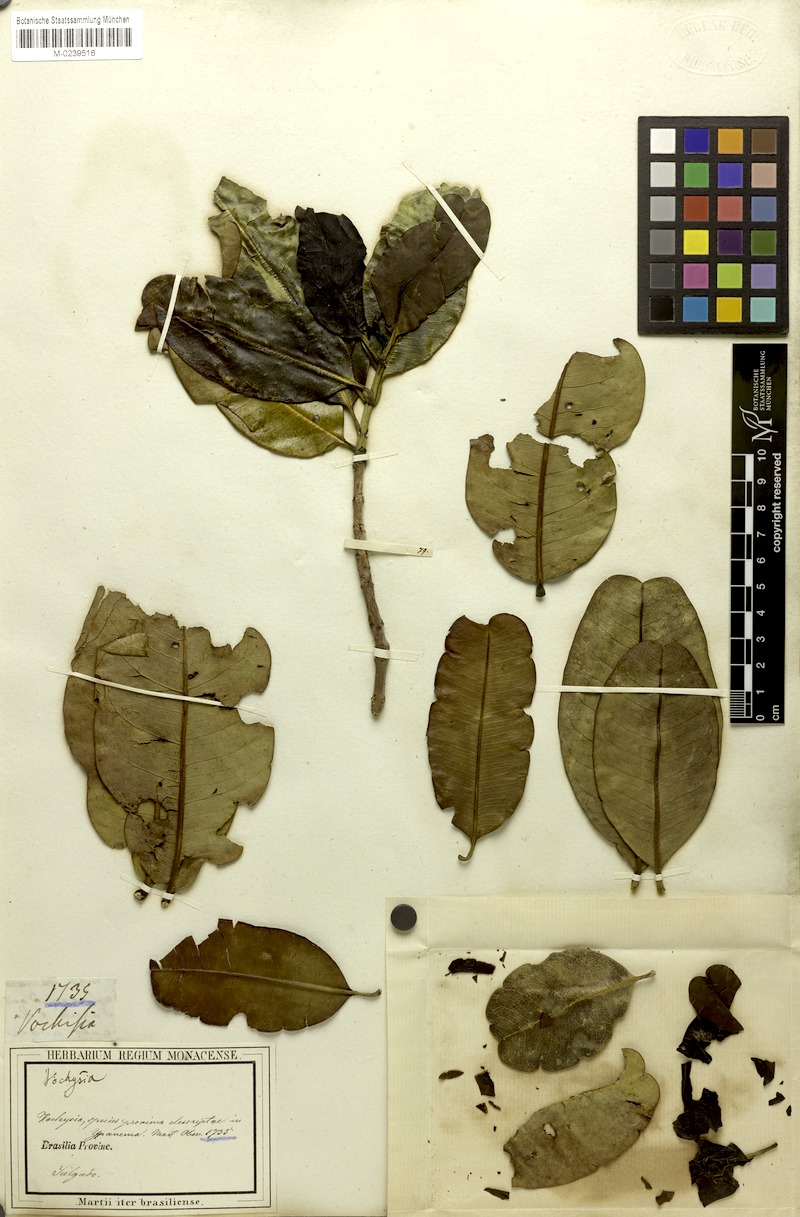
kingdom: Plantae
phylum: Tracheophyta
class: Magnoliopsida
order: Myrtales
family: Vochysiaceae
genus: Vochysia
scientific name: Vochysia elliptica
